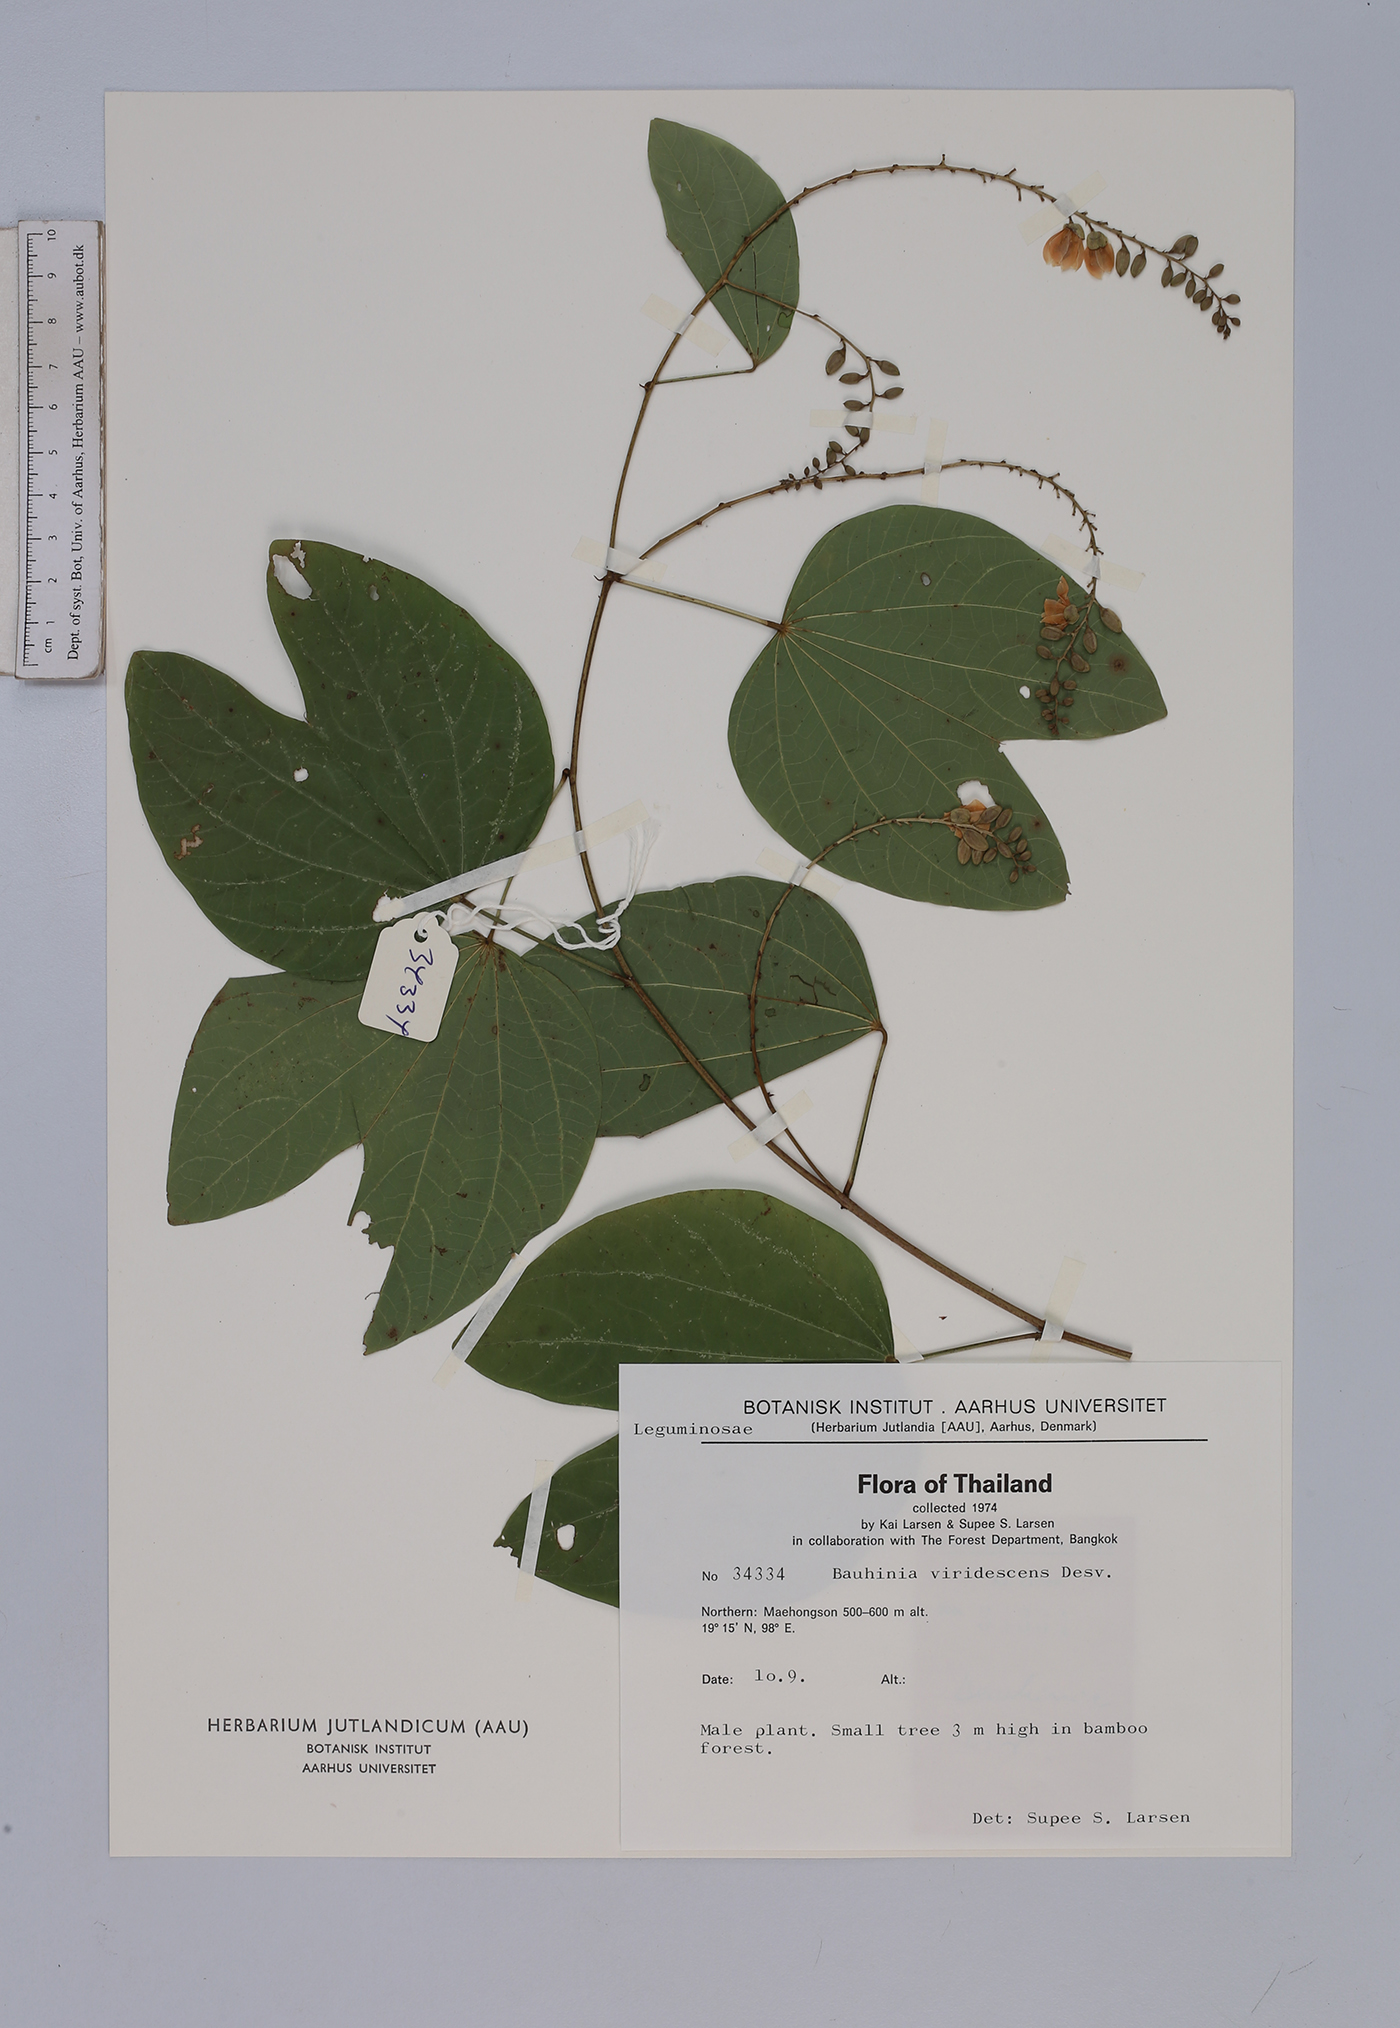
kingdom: Plantae
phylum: Tracheophyta
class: Magnoliopsida
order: Fabales
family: Fabaceae
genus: Bauhinia
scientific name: Bauhinia viridescens
